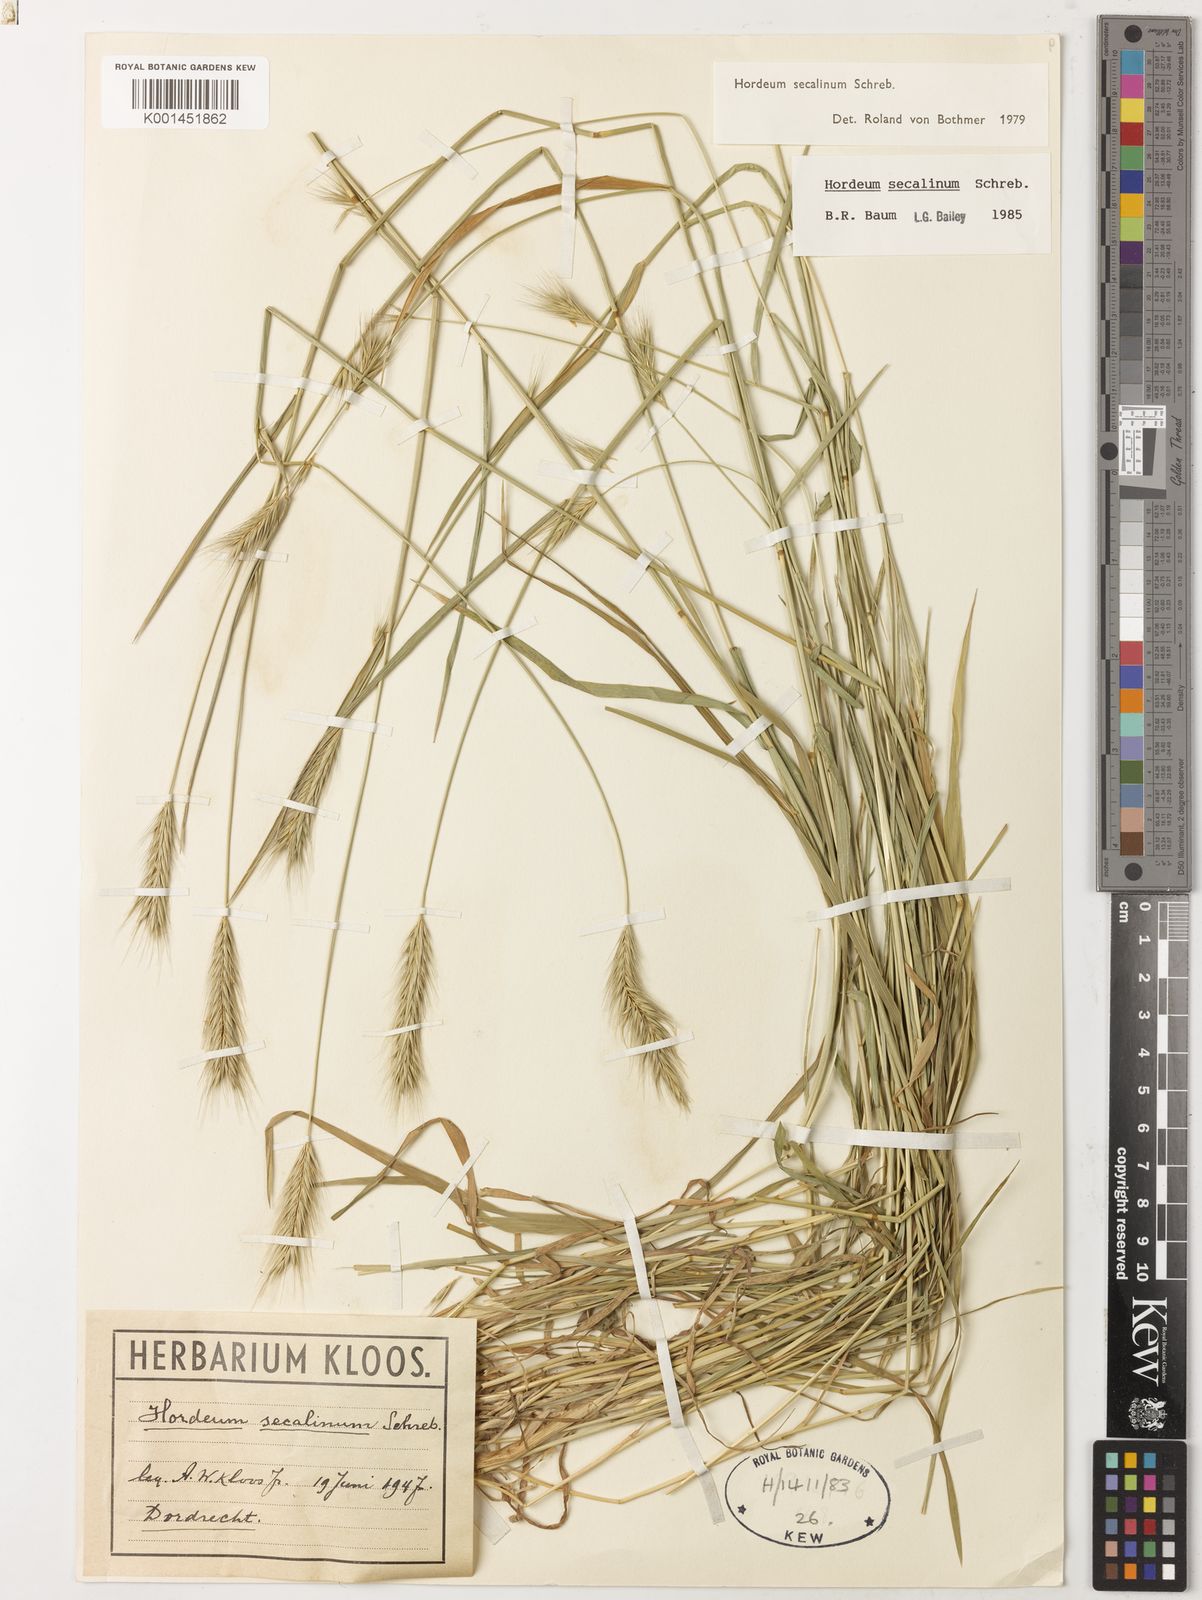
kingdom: Plantae
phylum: Tracheophyta
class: Liliopsida
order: Poales
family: Poaceae
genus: Hordeum
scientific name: Hordeum secalinum
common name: Meadow barley
